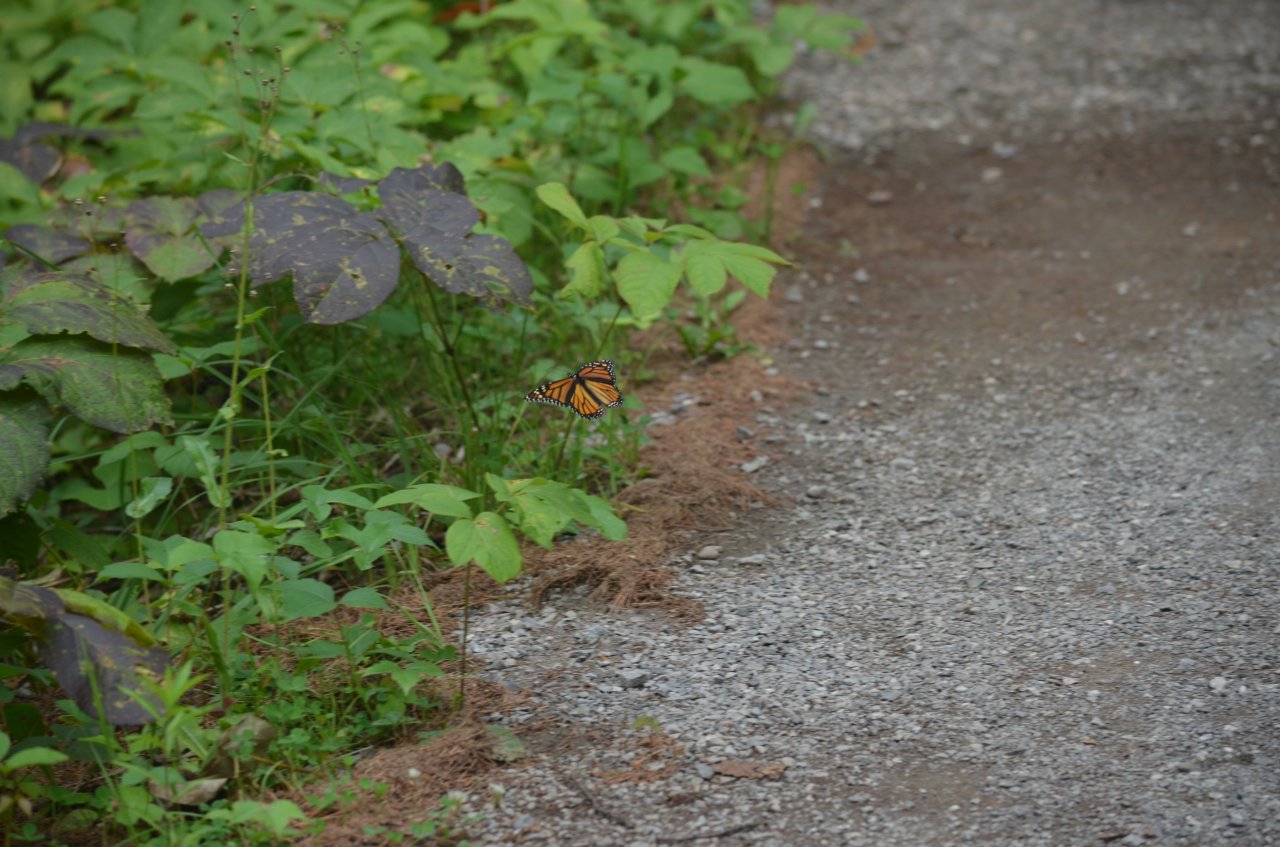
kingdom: Animalia
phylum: Arthropoda
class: Insecta
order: Lepidoptera
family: Nymphalidae
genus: Danaus
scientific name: Danaus plexippus
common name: Monarch
